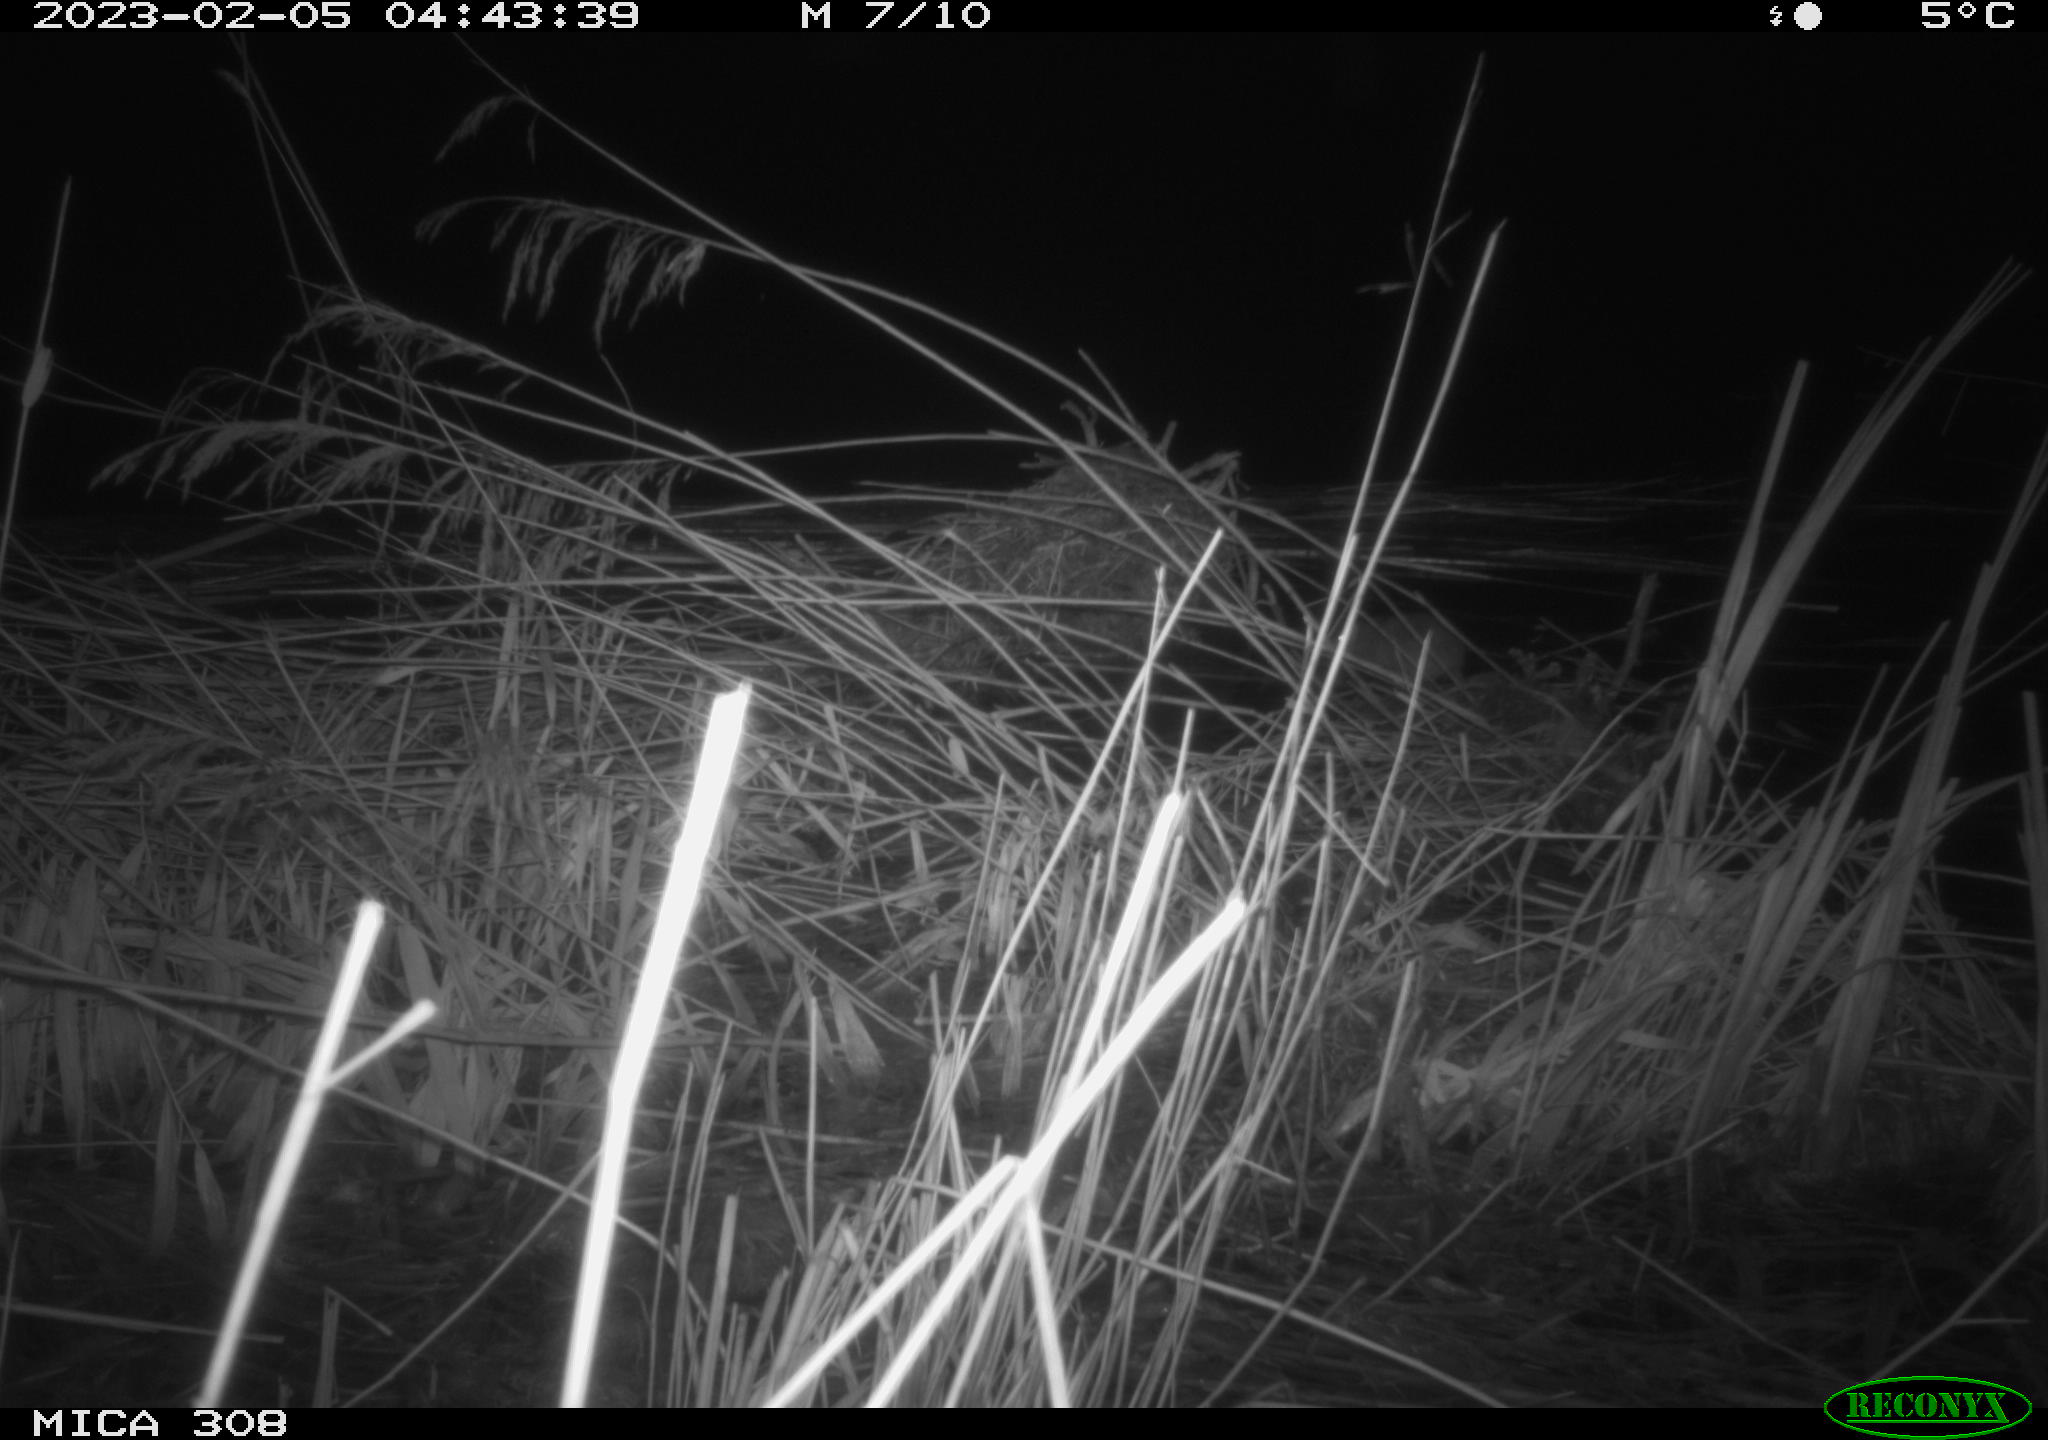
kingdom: Animalia
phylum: Chordata
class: Mammalia
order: Rodentia
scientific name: Rodentia
